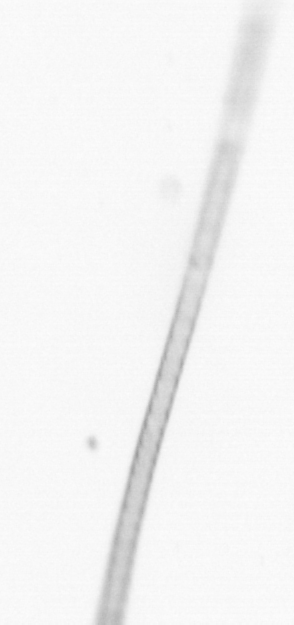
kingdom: Chromista
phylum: Ochrophyta
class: Bacillariophyceae
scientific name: Bacillariophyceae
